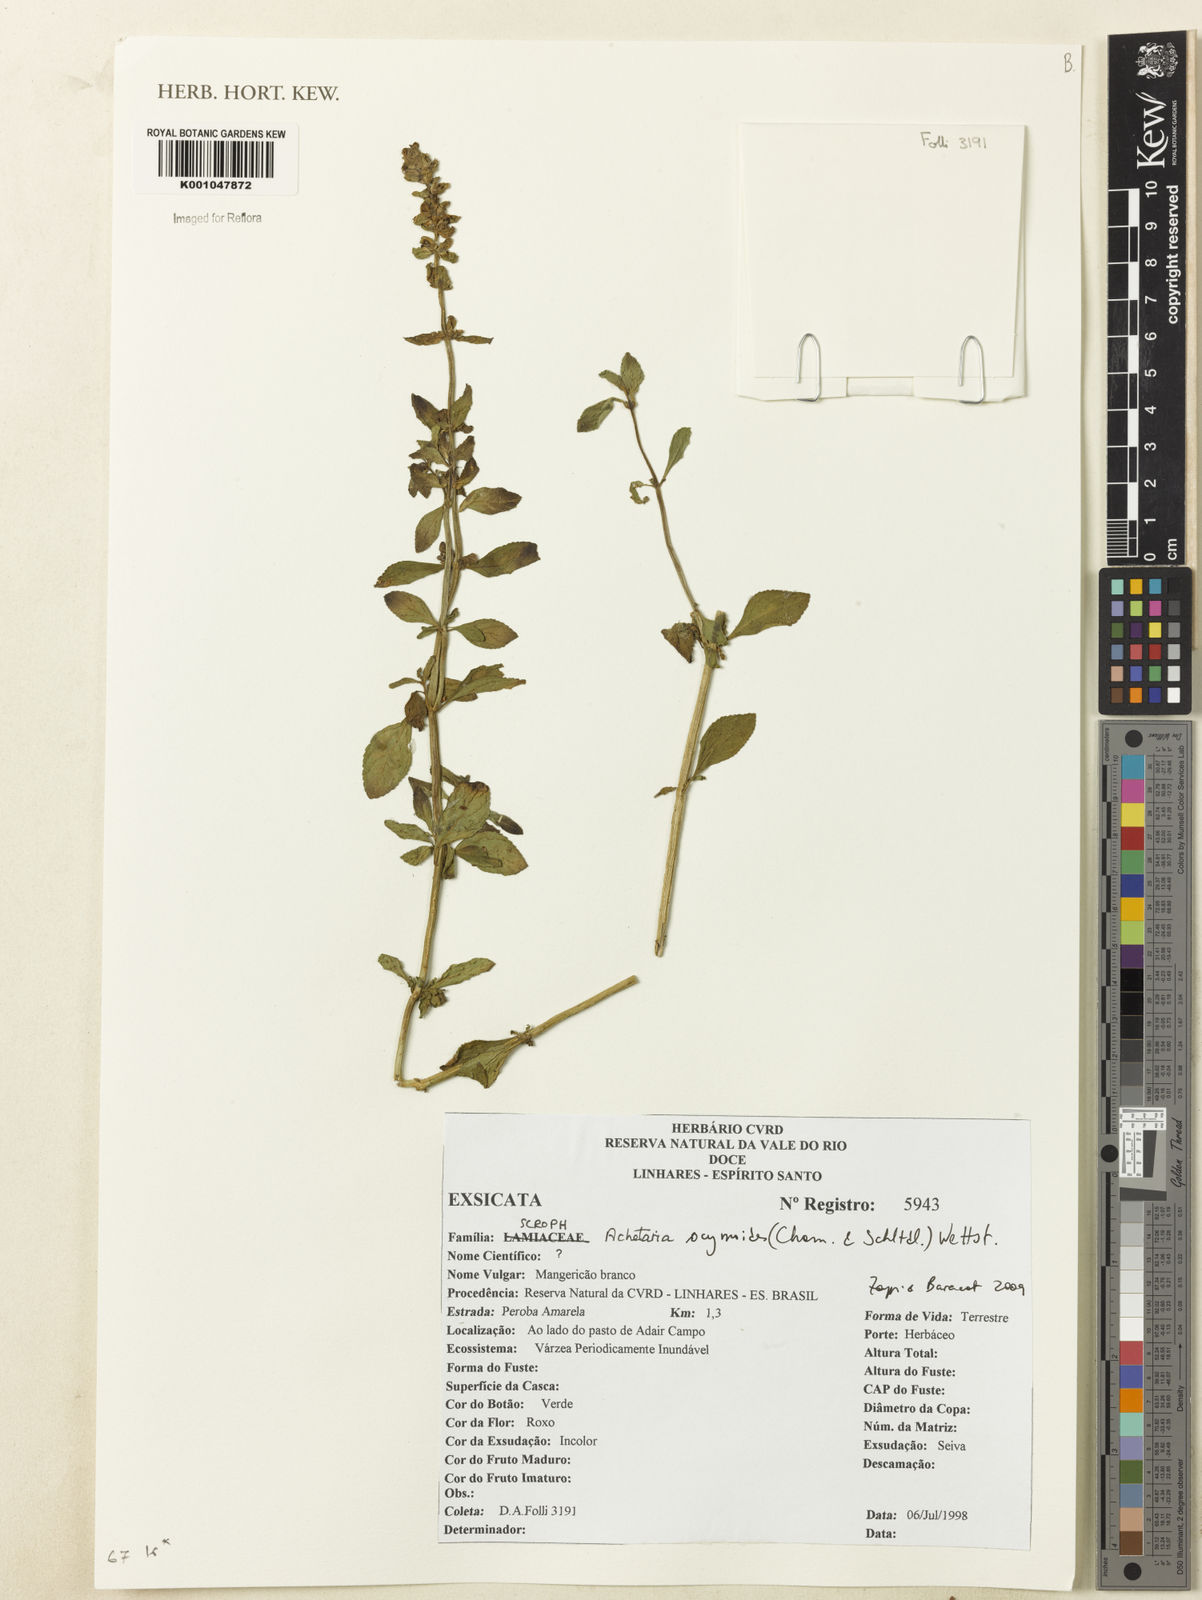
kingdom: Plantae
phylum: Tracheophyta
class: Magnoliopsida
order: Lamiales
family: Plantaginaceae
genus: Matourea
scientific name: Matourea ocymoides
